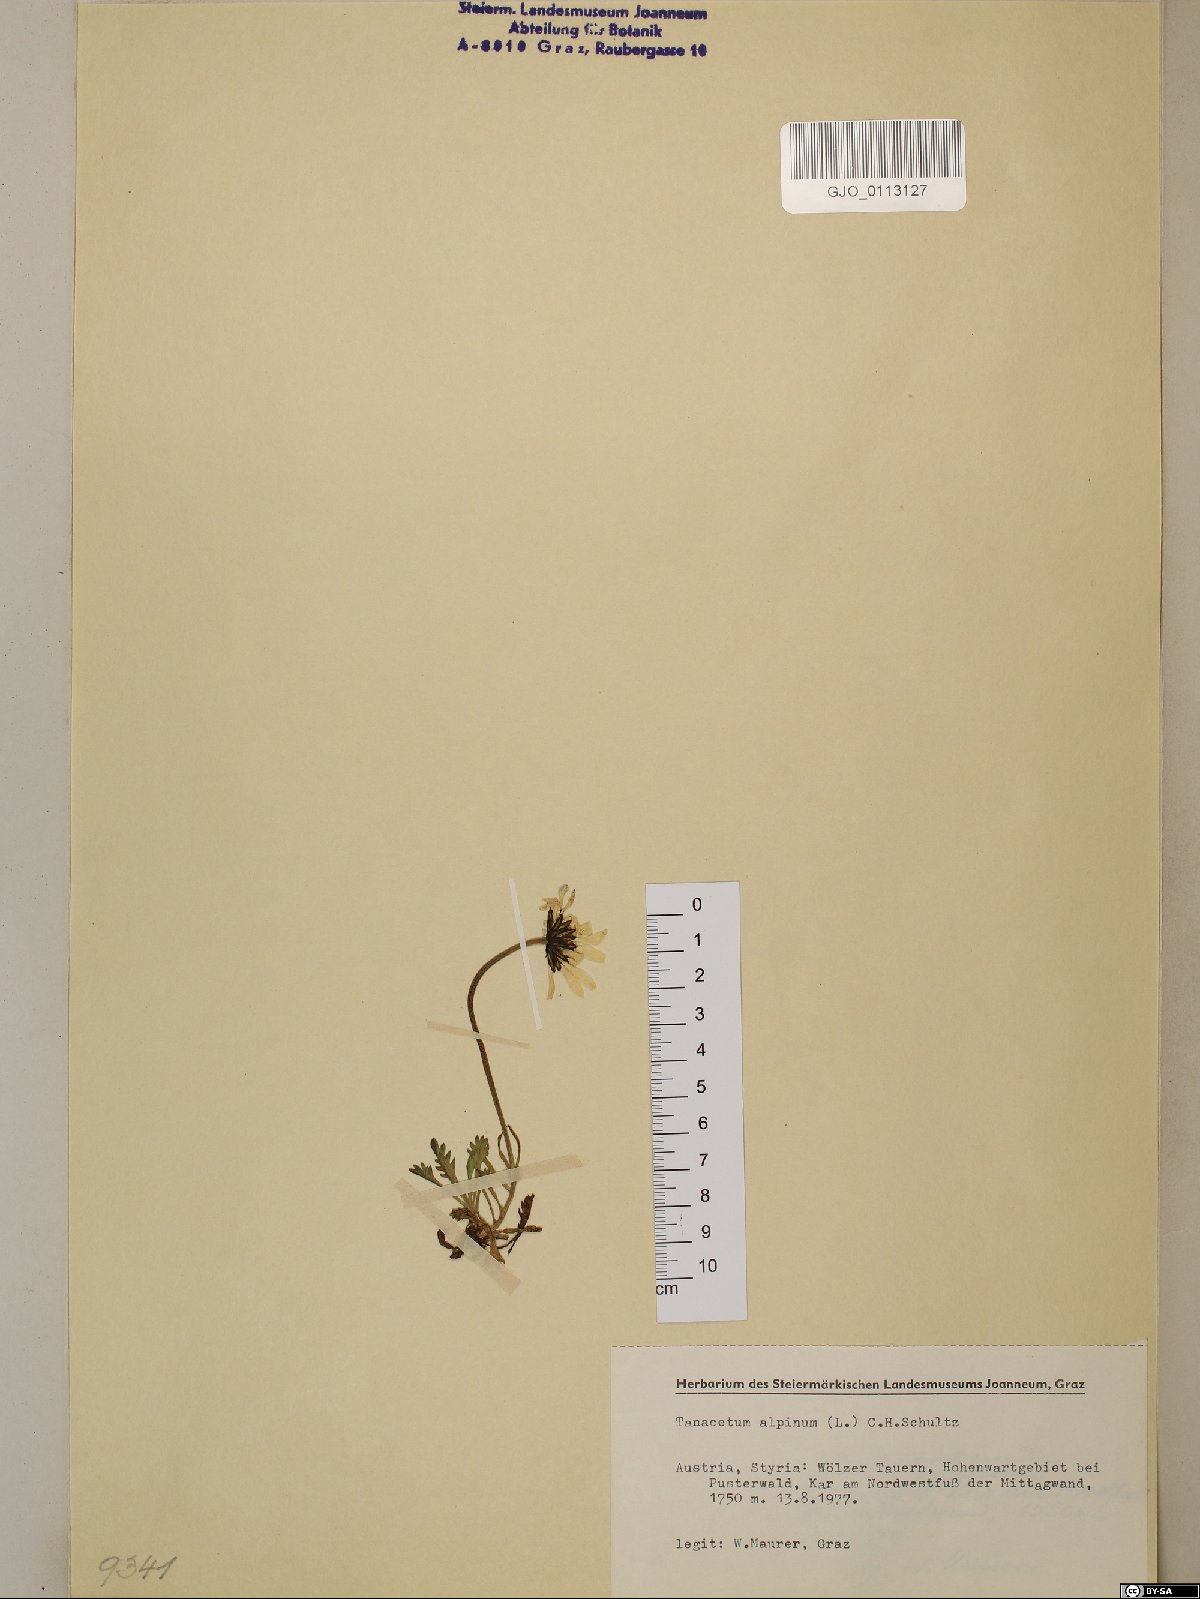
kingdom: Plantae
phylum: Tracheophyta
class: Magnoliopsida
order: Asterales
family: Asteraceae
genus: Leucanthemopsis
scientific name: Leucanthemopsis alpina
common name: Alpine moon daisy
